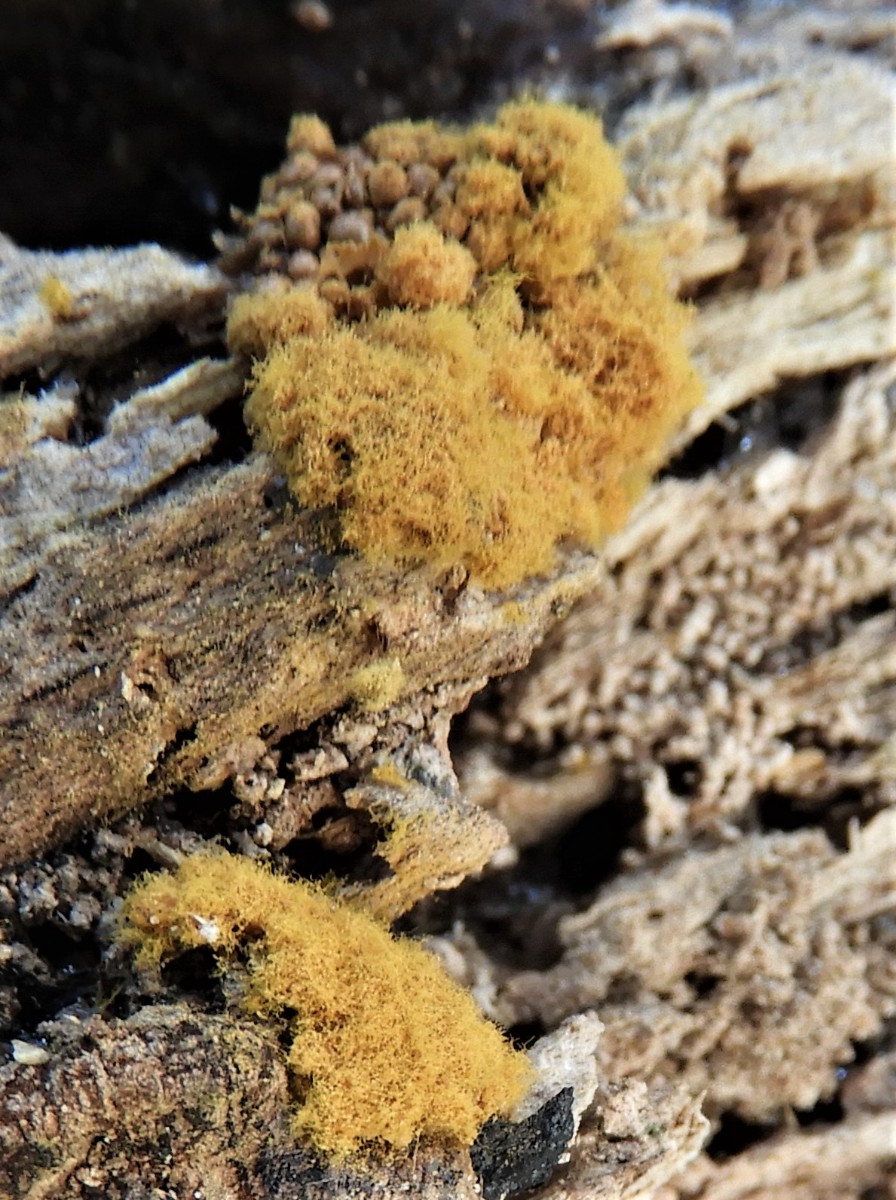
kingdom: Protozoa
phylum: Mycetozoa
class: Myxomycetes
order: Trichiales
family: Trichiaceae
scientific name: Trichiaceae
